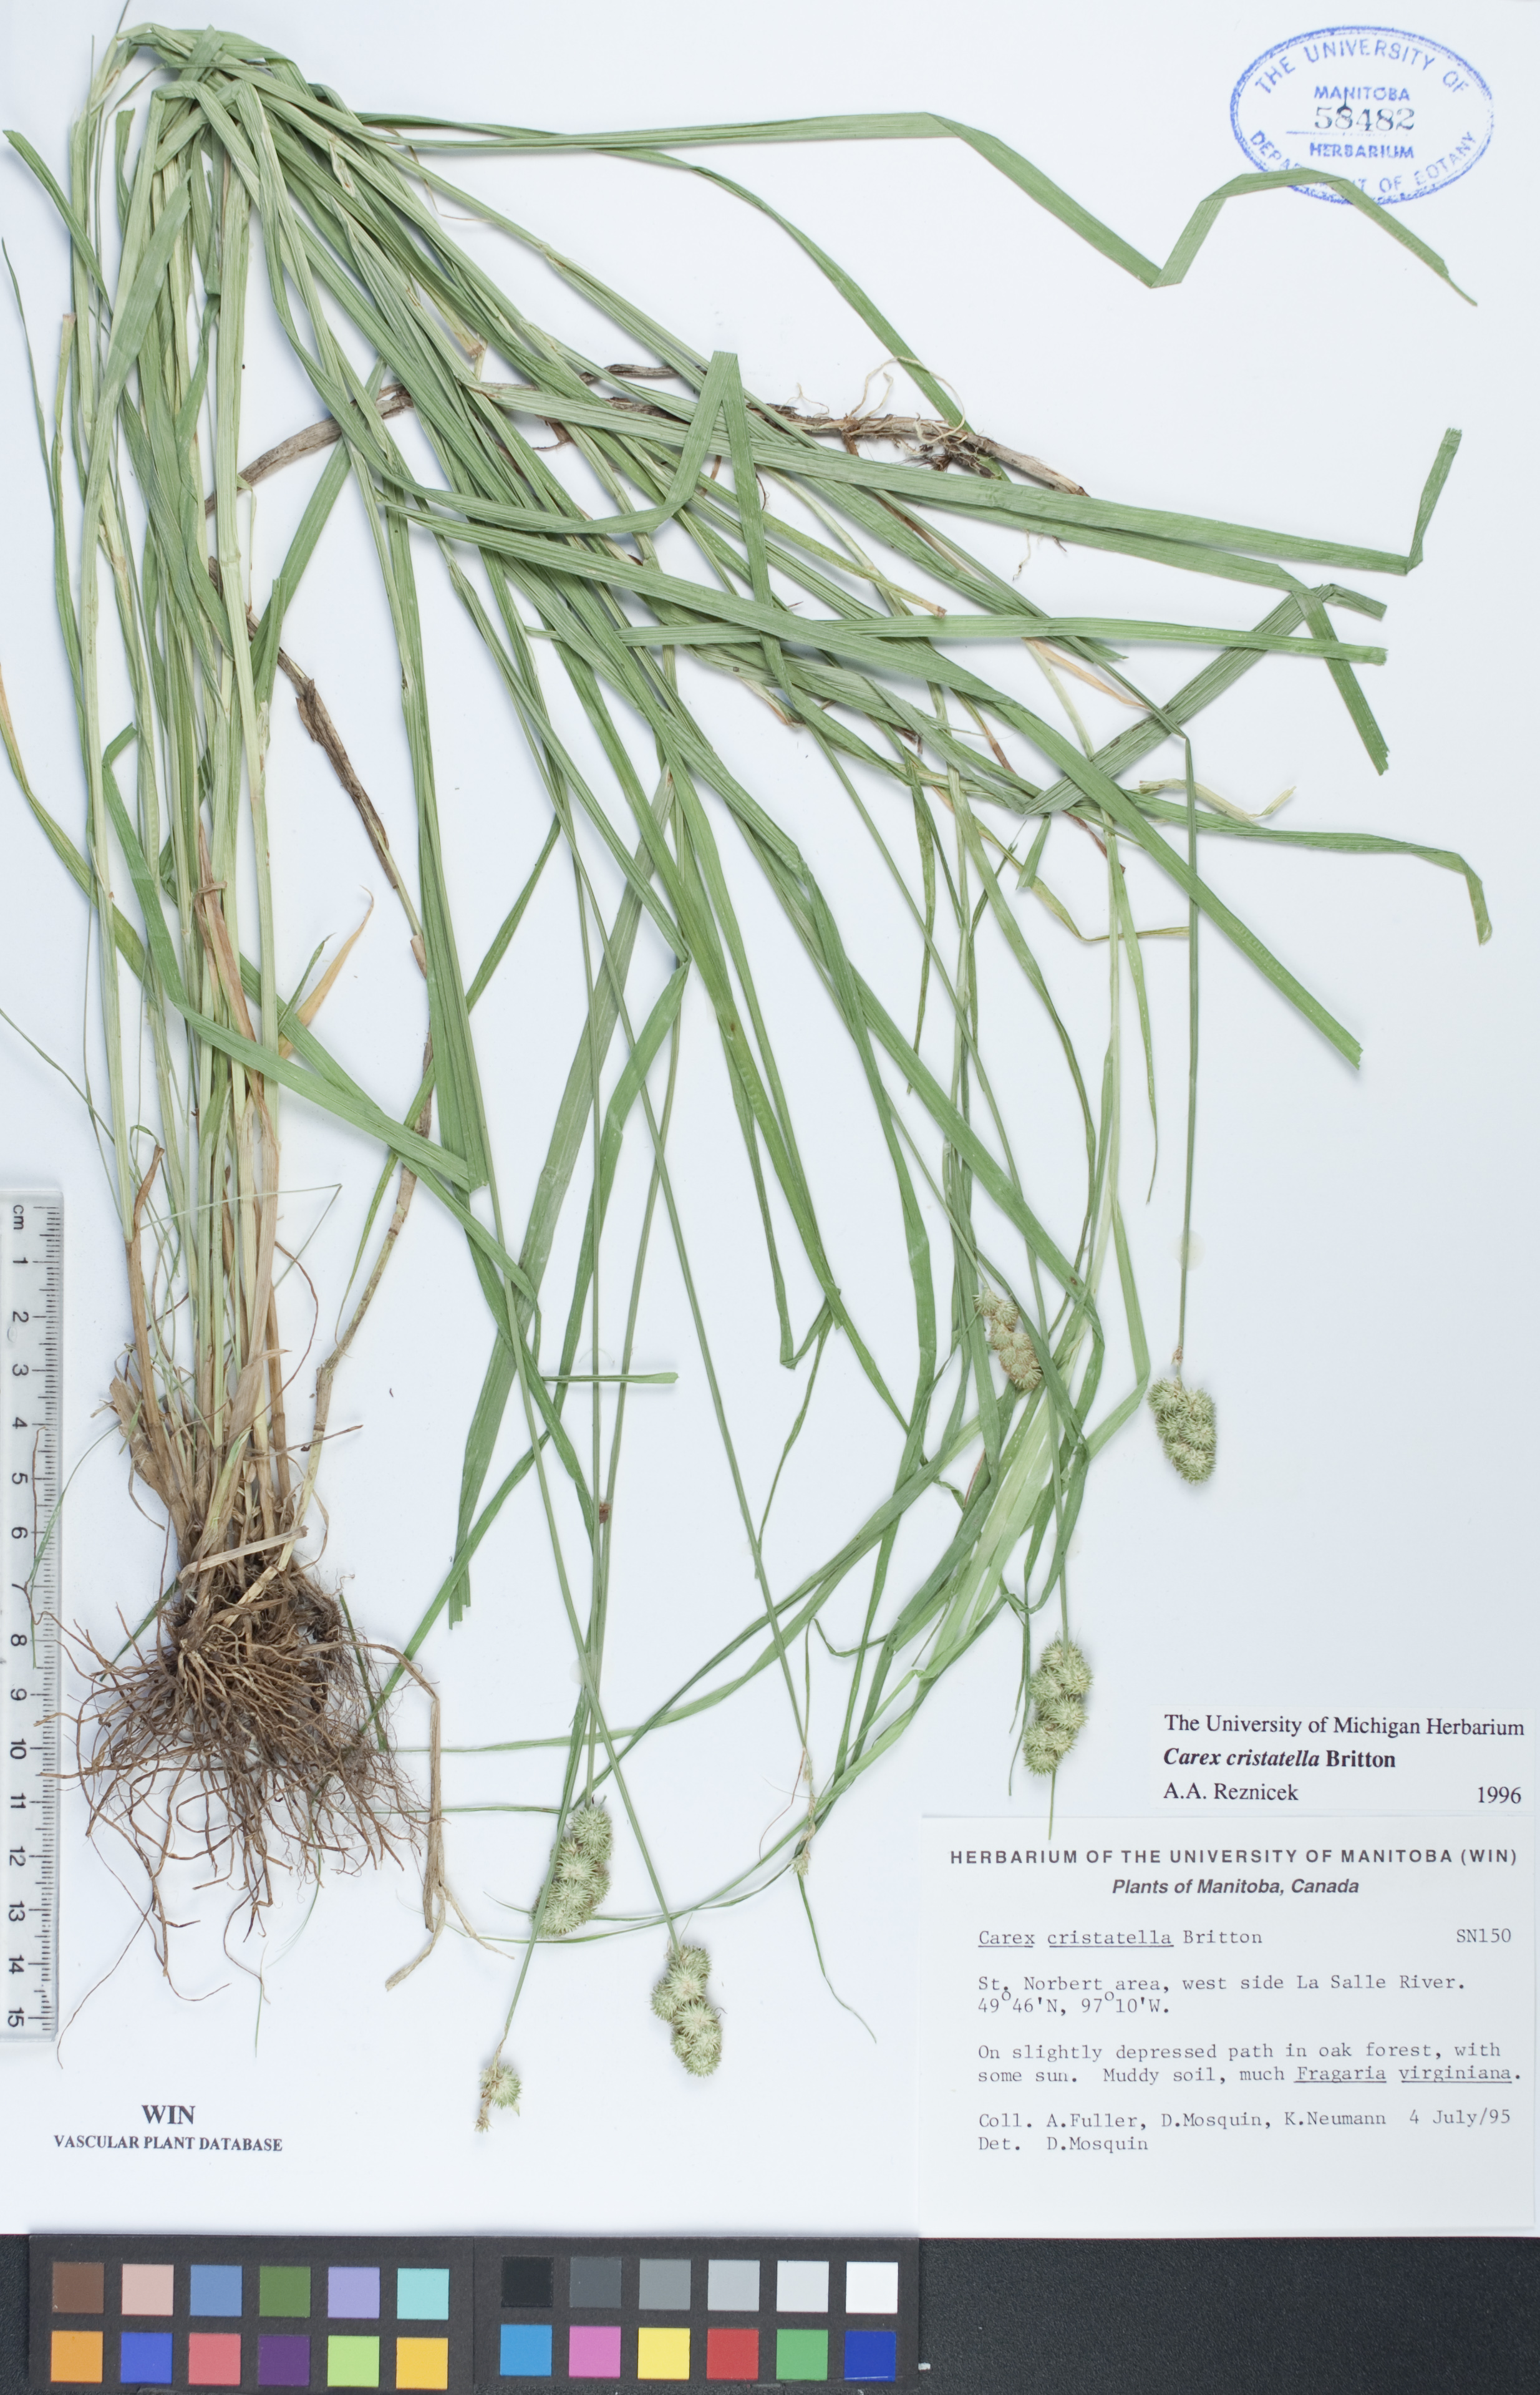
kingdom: Plantae
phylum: Tracheophyta
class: Liliopsida
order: Poales
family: Cyperaceae
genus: Carex
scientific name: Carex cristatella
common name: Crested oval sedge
